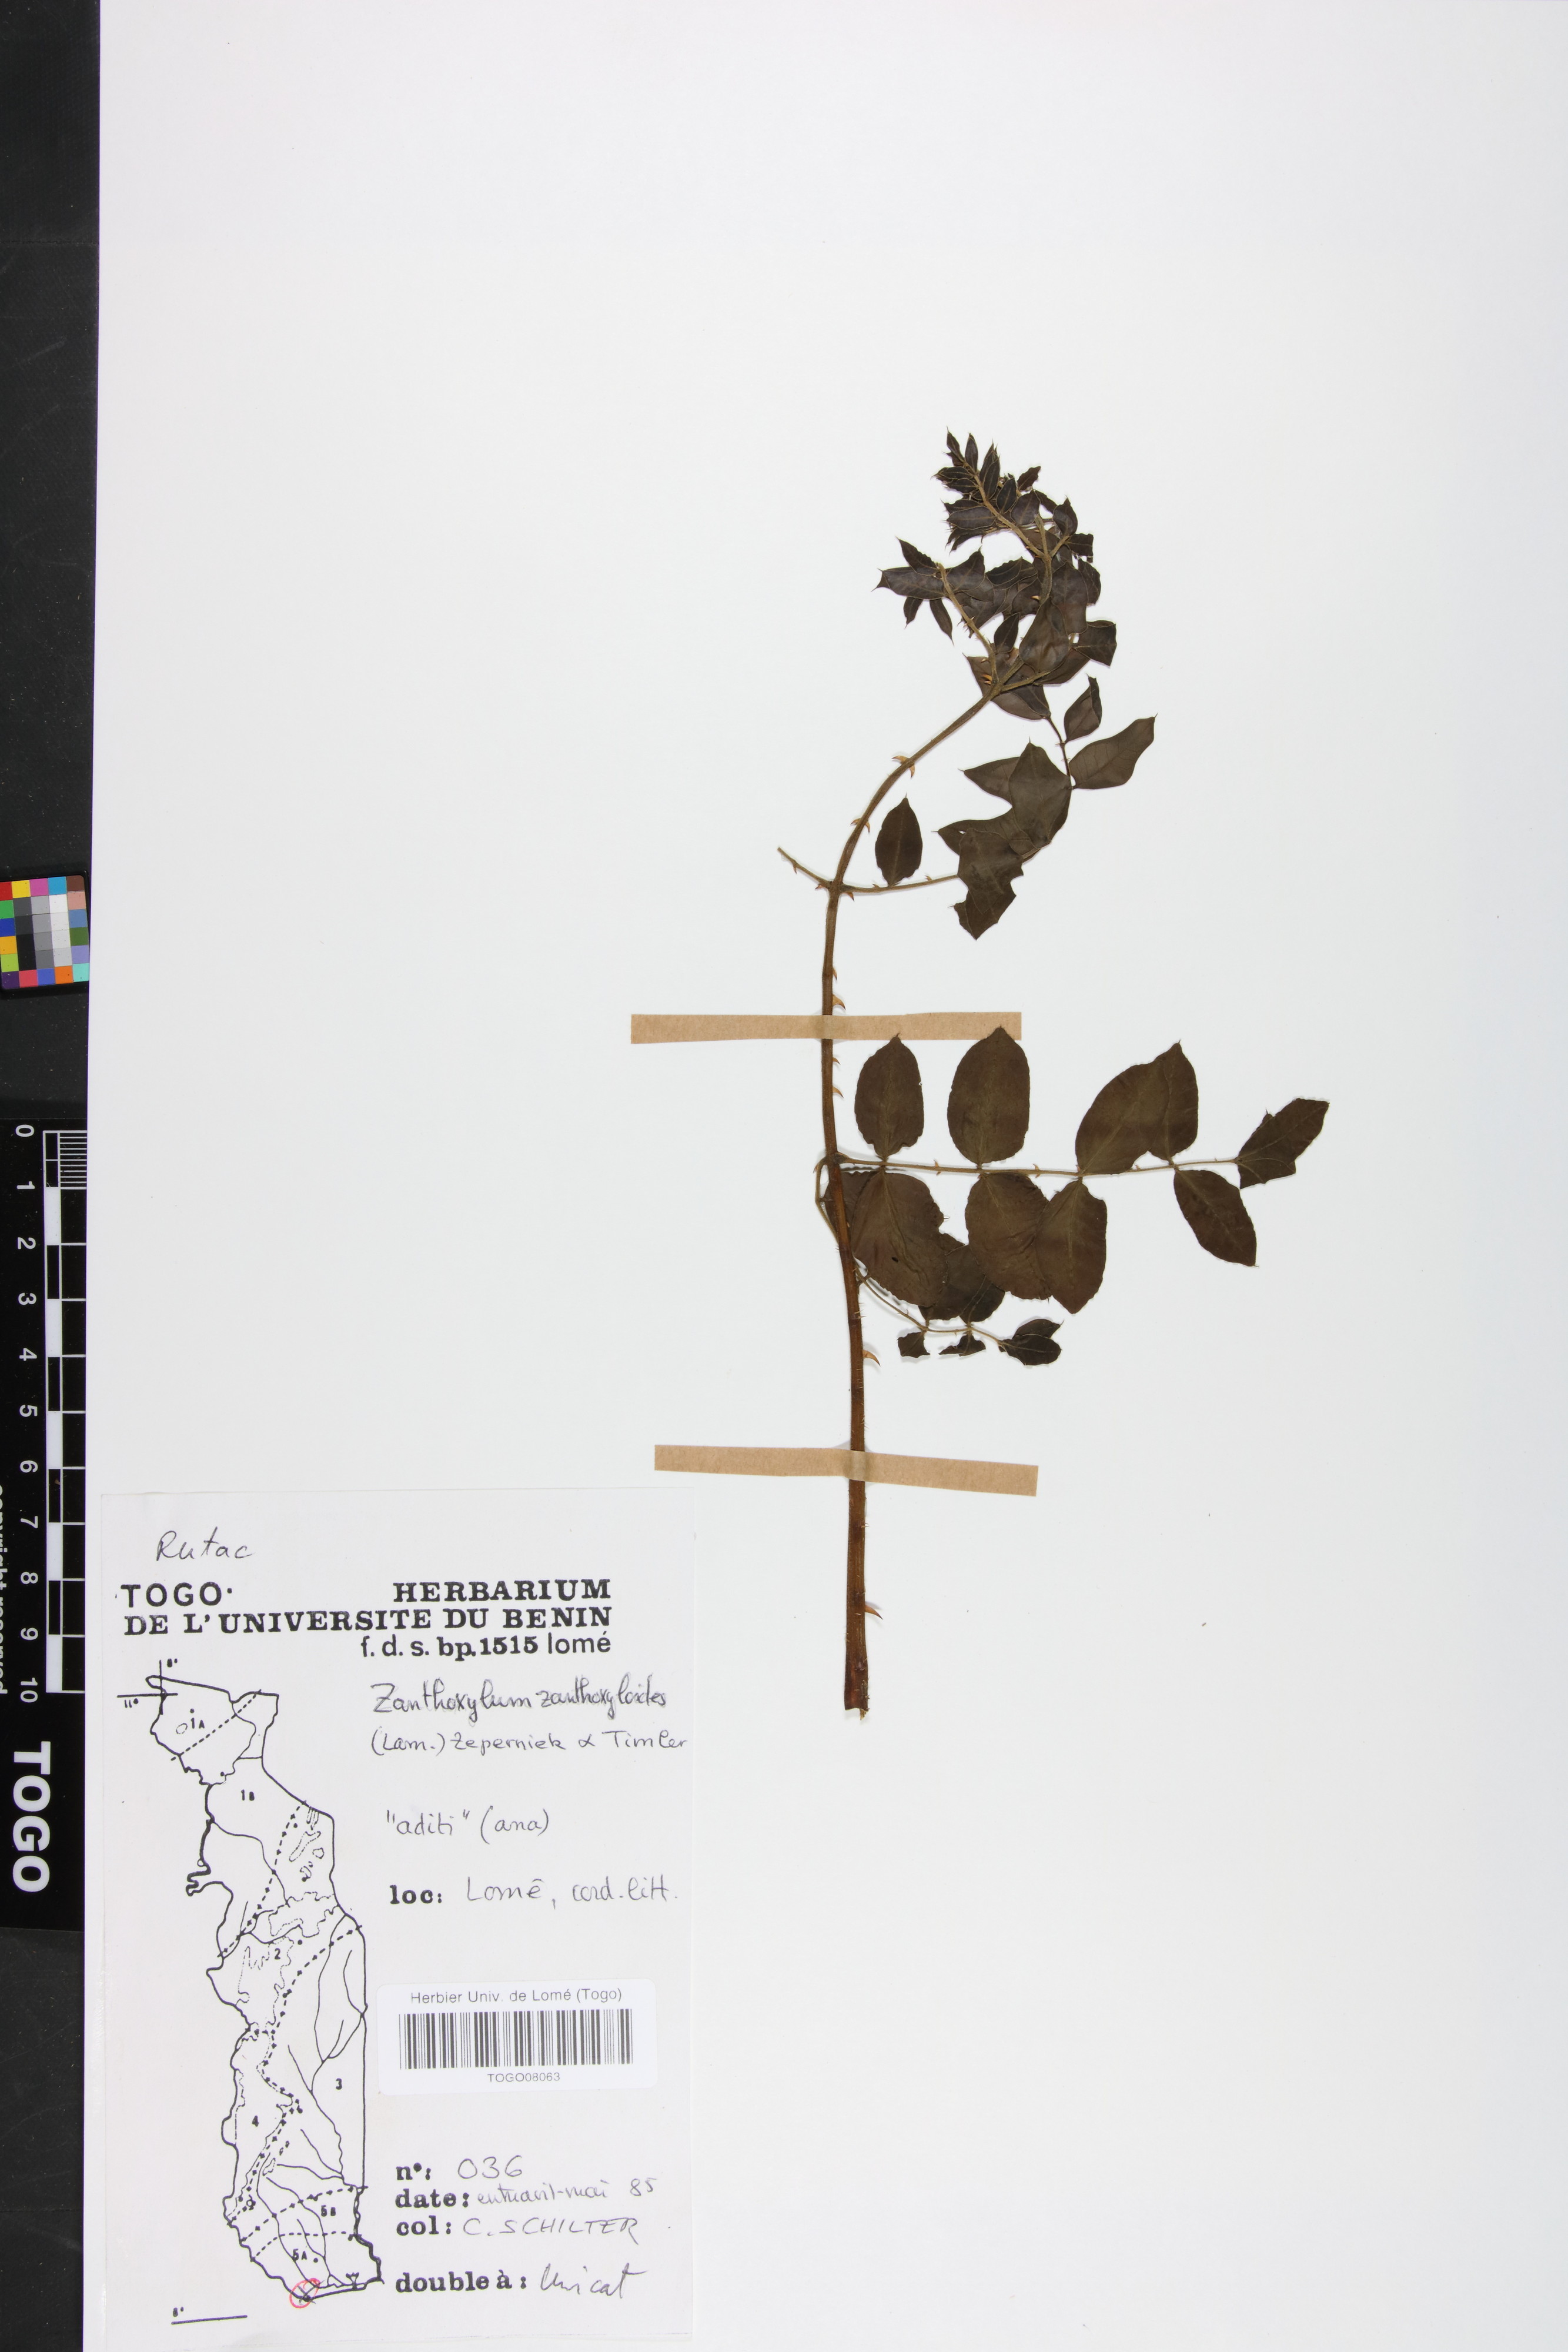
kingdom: Plantae
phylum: Tracheophyta
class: Magnoliopsida
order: Sapindales
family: Rutaceae
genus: Zanthoxylum
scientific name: Zanthoxylum zanthoxyloides
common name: Senegal prickly-ash
